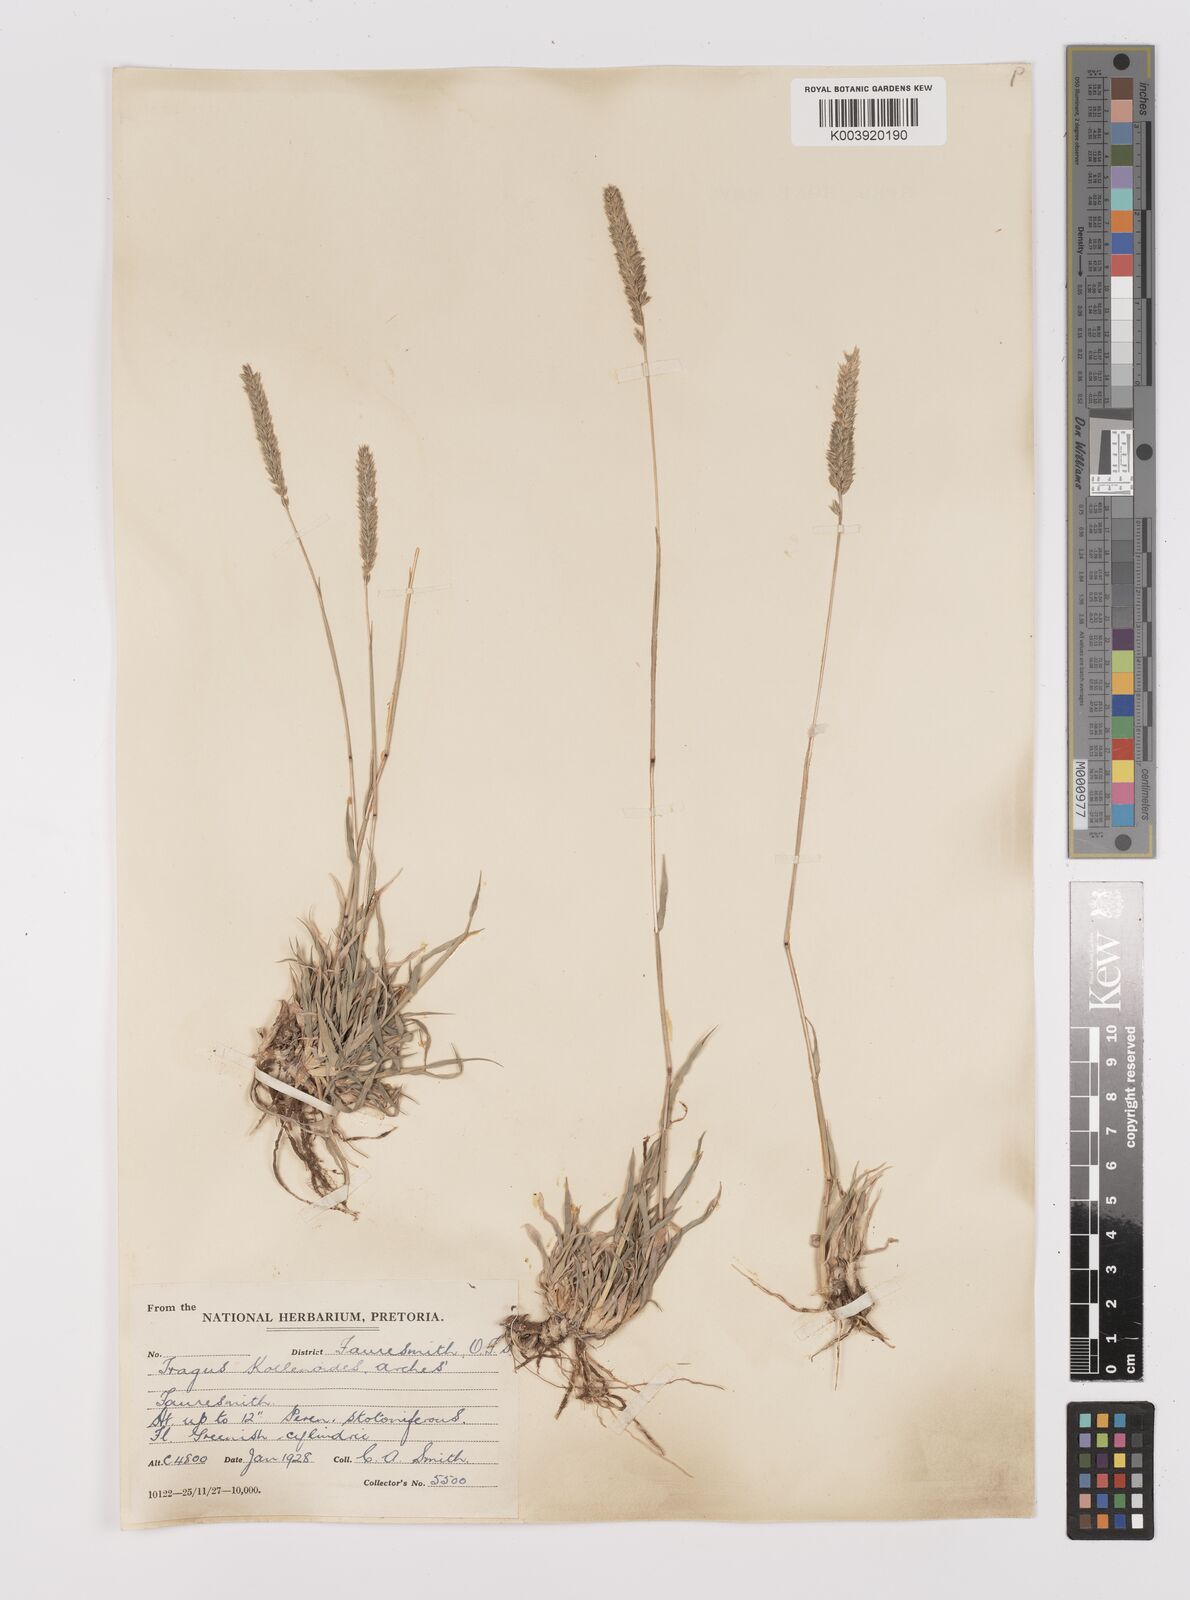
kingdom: Plantae
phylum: Tracheophyta
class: Liliopsida
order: Poales
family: Poaceae
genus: Tragus
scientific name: Tragus koelerioides
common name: Creeping carrot-seed grass
